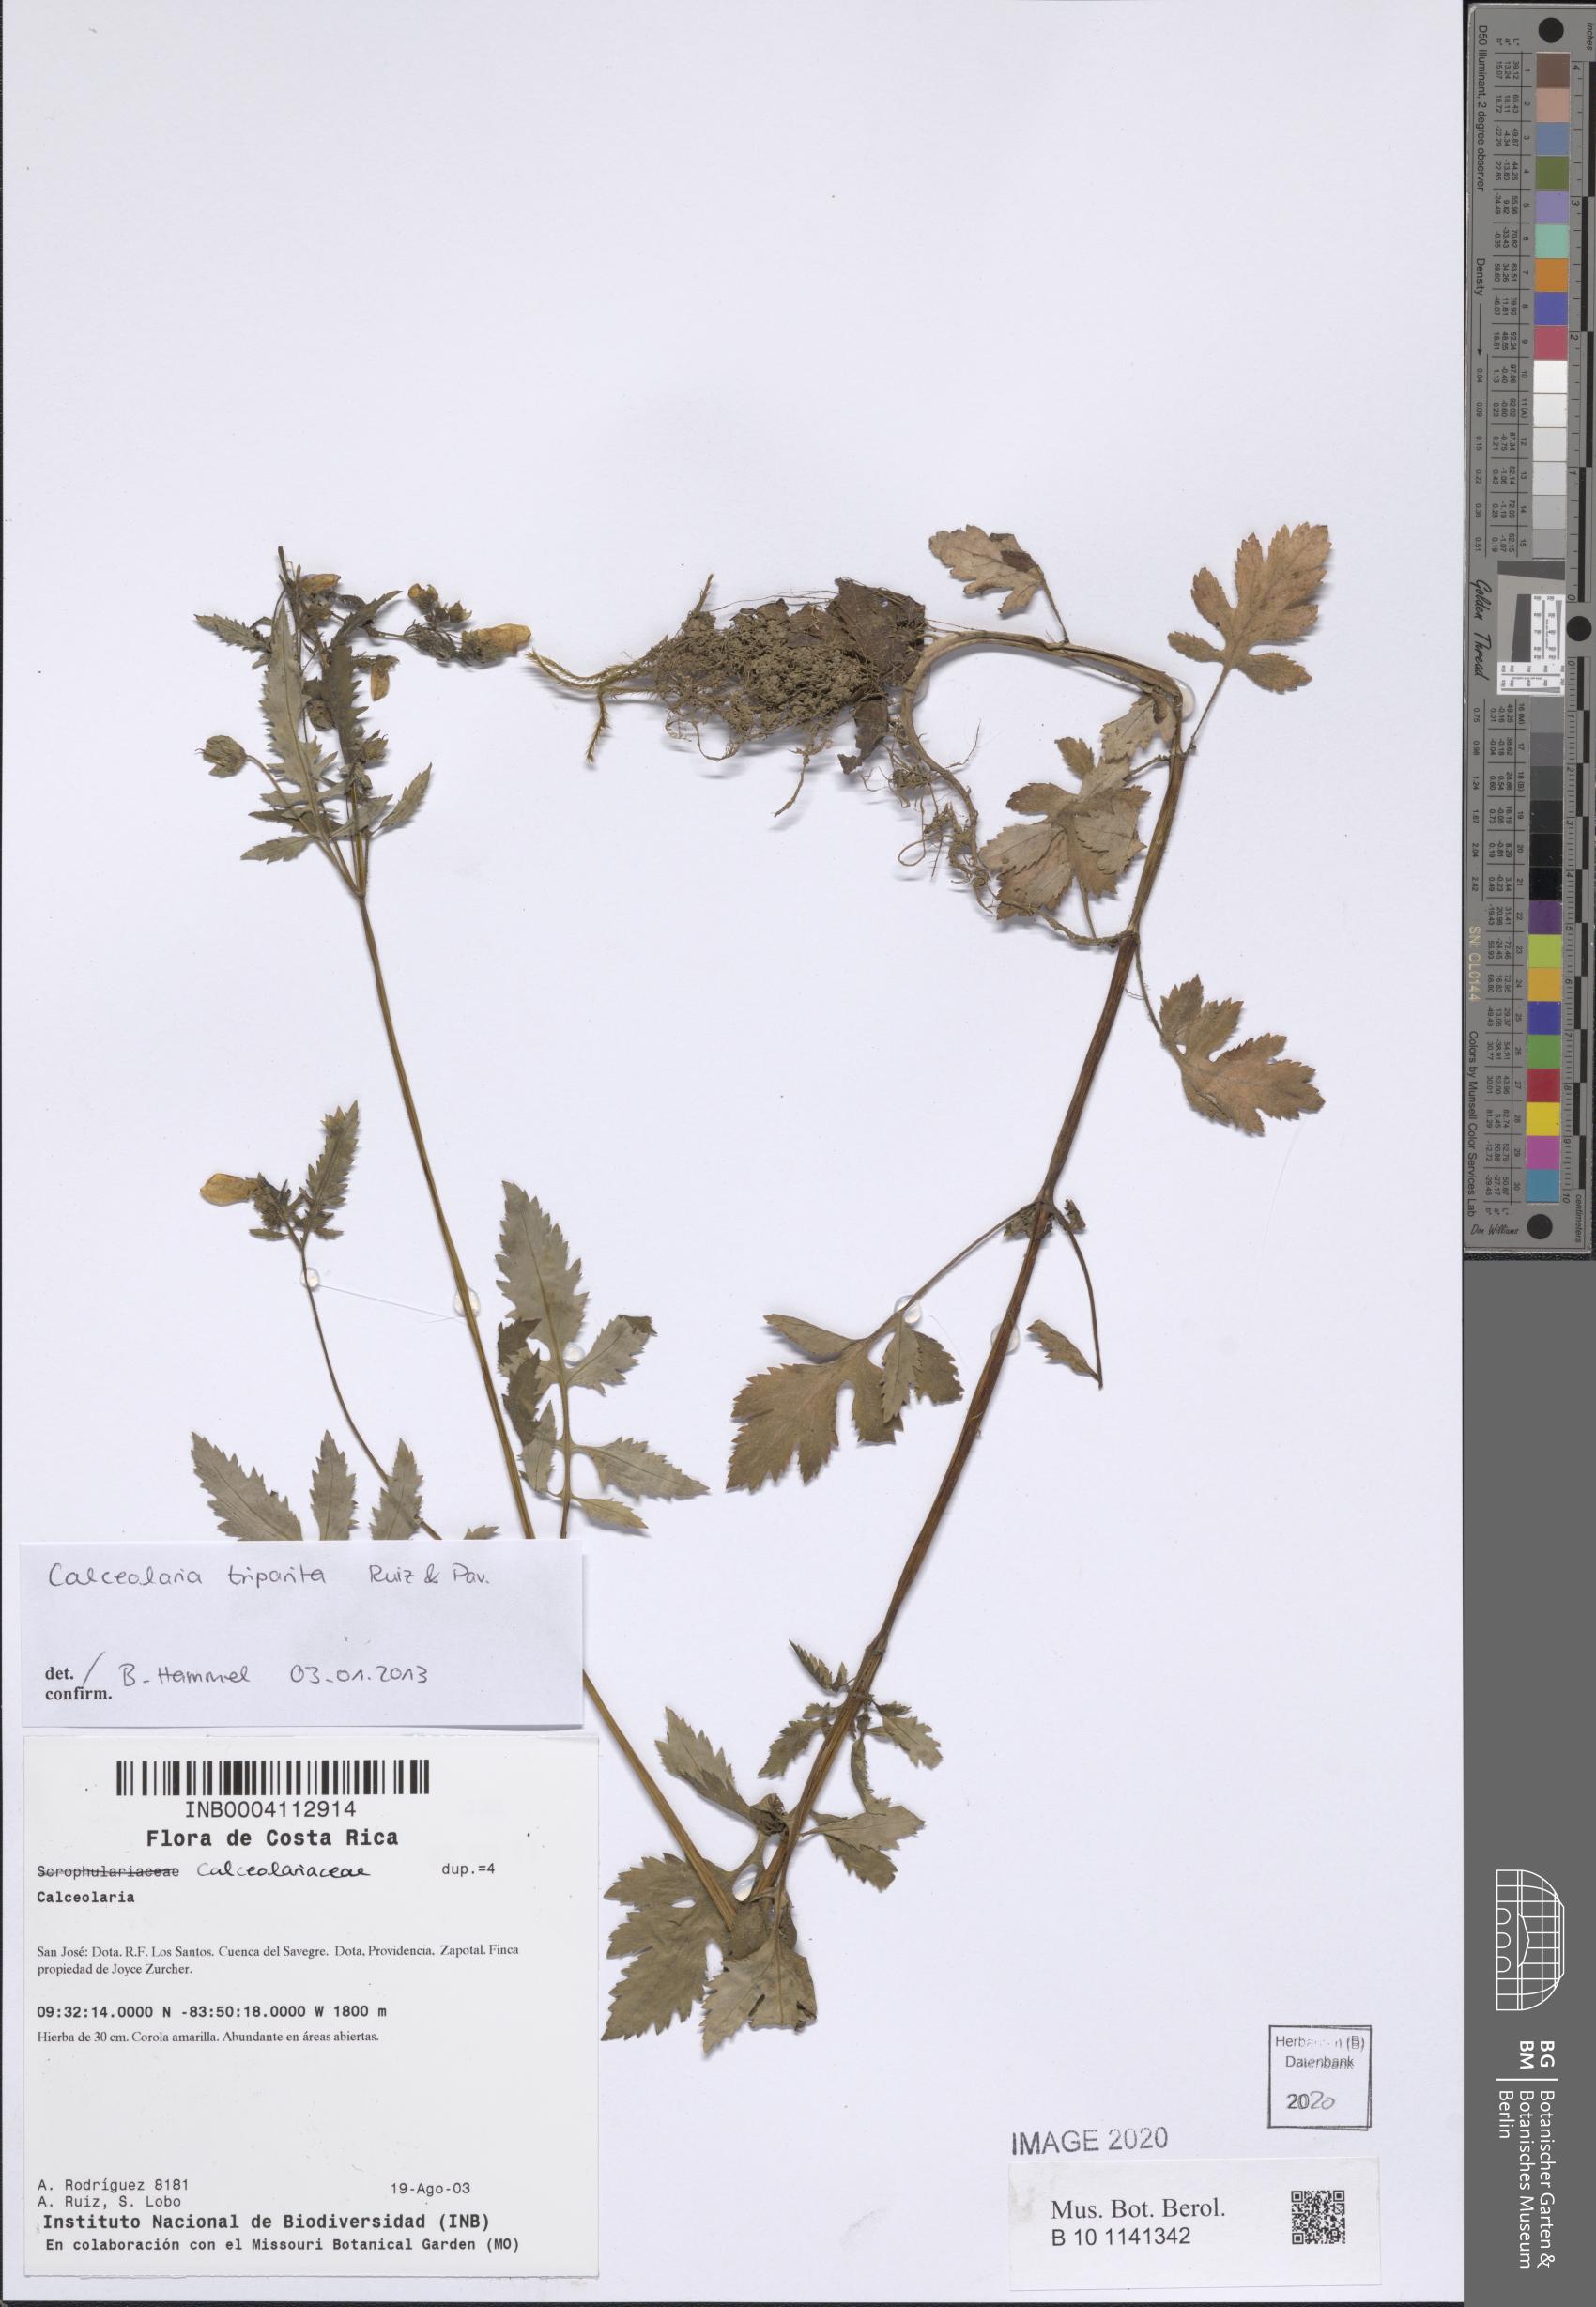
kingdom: Plantae
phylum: Tracheophyta
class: Magnoliopsida
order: Lamiales
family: Calceolariaceae
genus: Calceolaria
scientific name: Calceolaria tripartita
